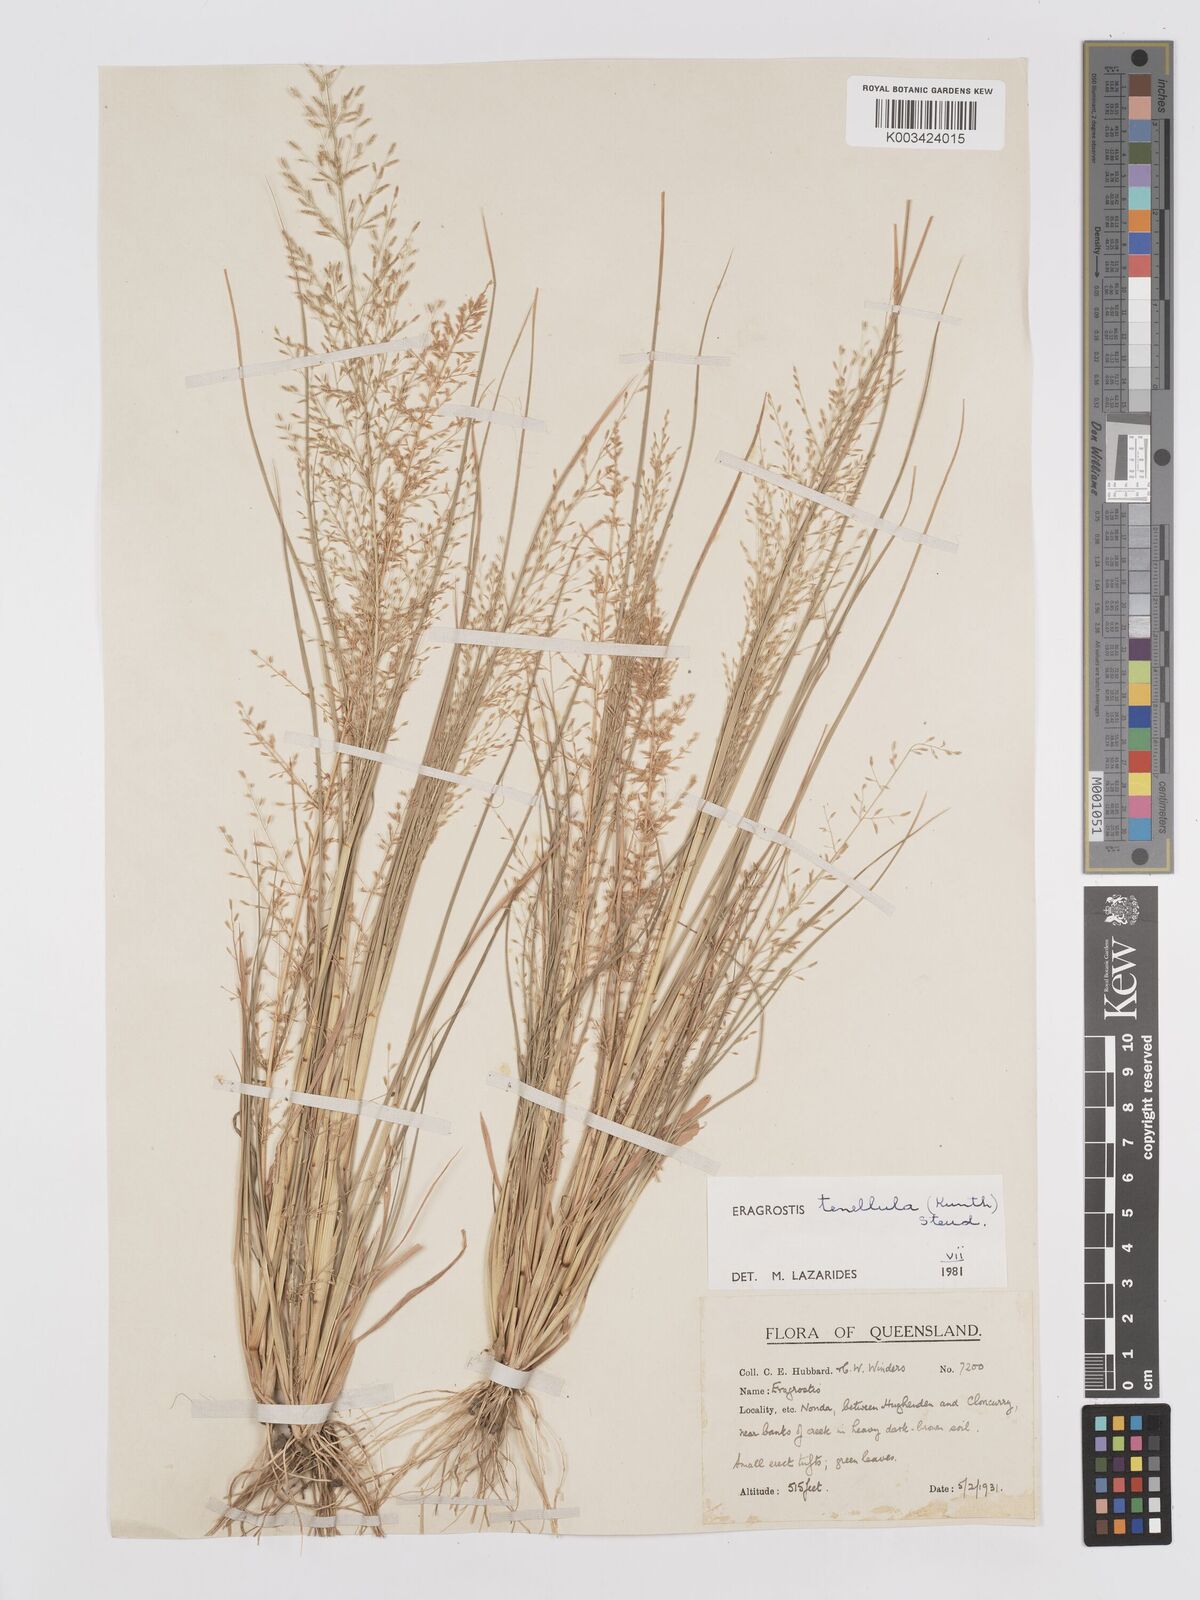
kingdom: Plantae
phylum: Tracheophyta
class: Liliopsida
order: Poales
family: Poaceae
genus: Eragrostis
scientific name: Eragrostis tenellula
